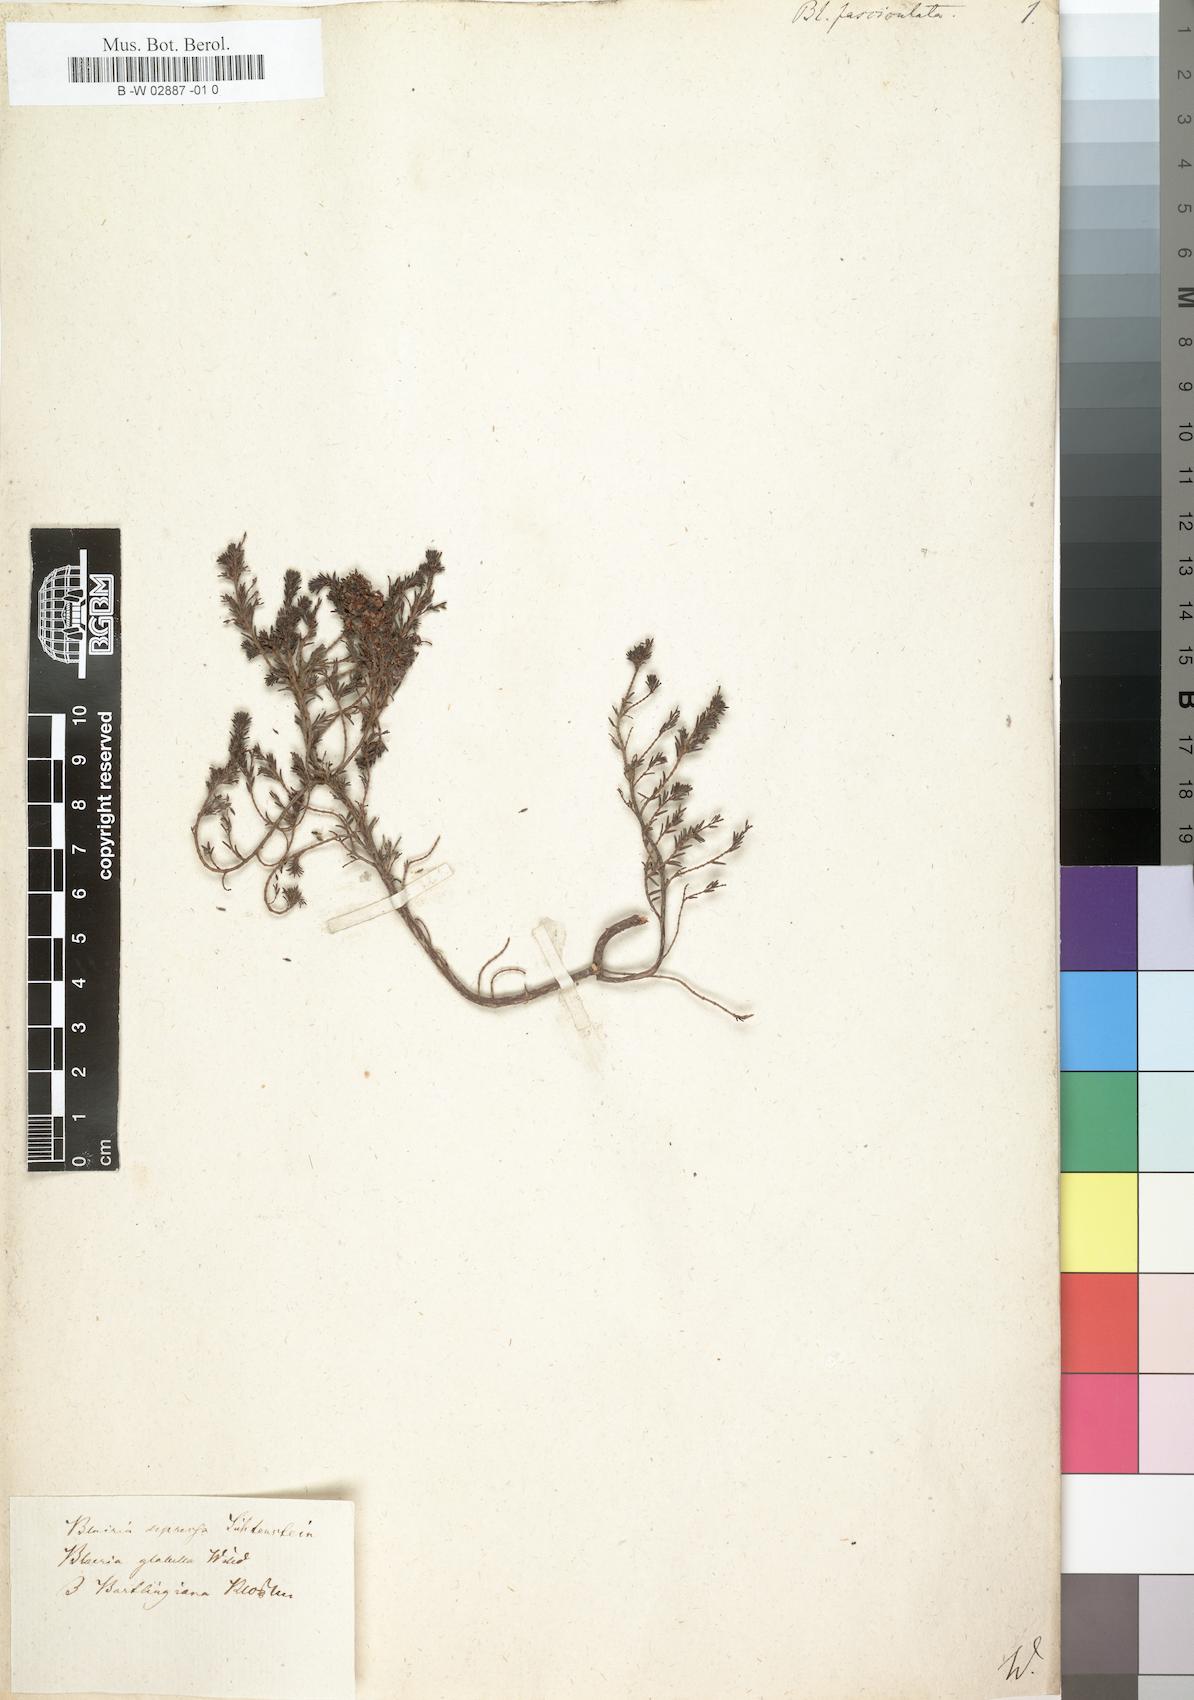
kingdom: Plantae
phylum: Tracheophyta
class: Magnoliopsida
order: Ericales
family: Ericaceae
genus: Erica
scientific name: Erica glabella
